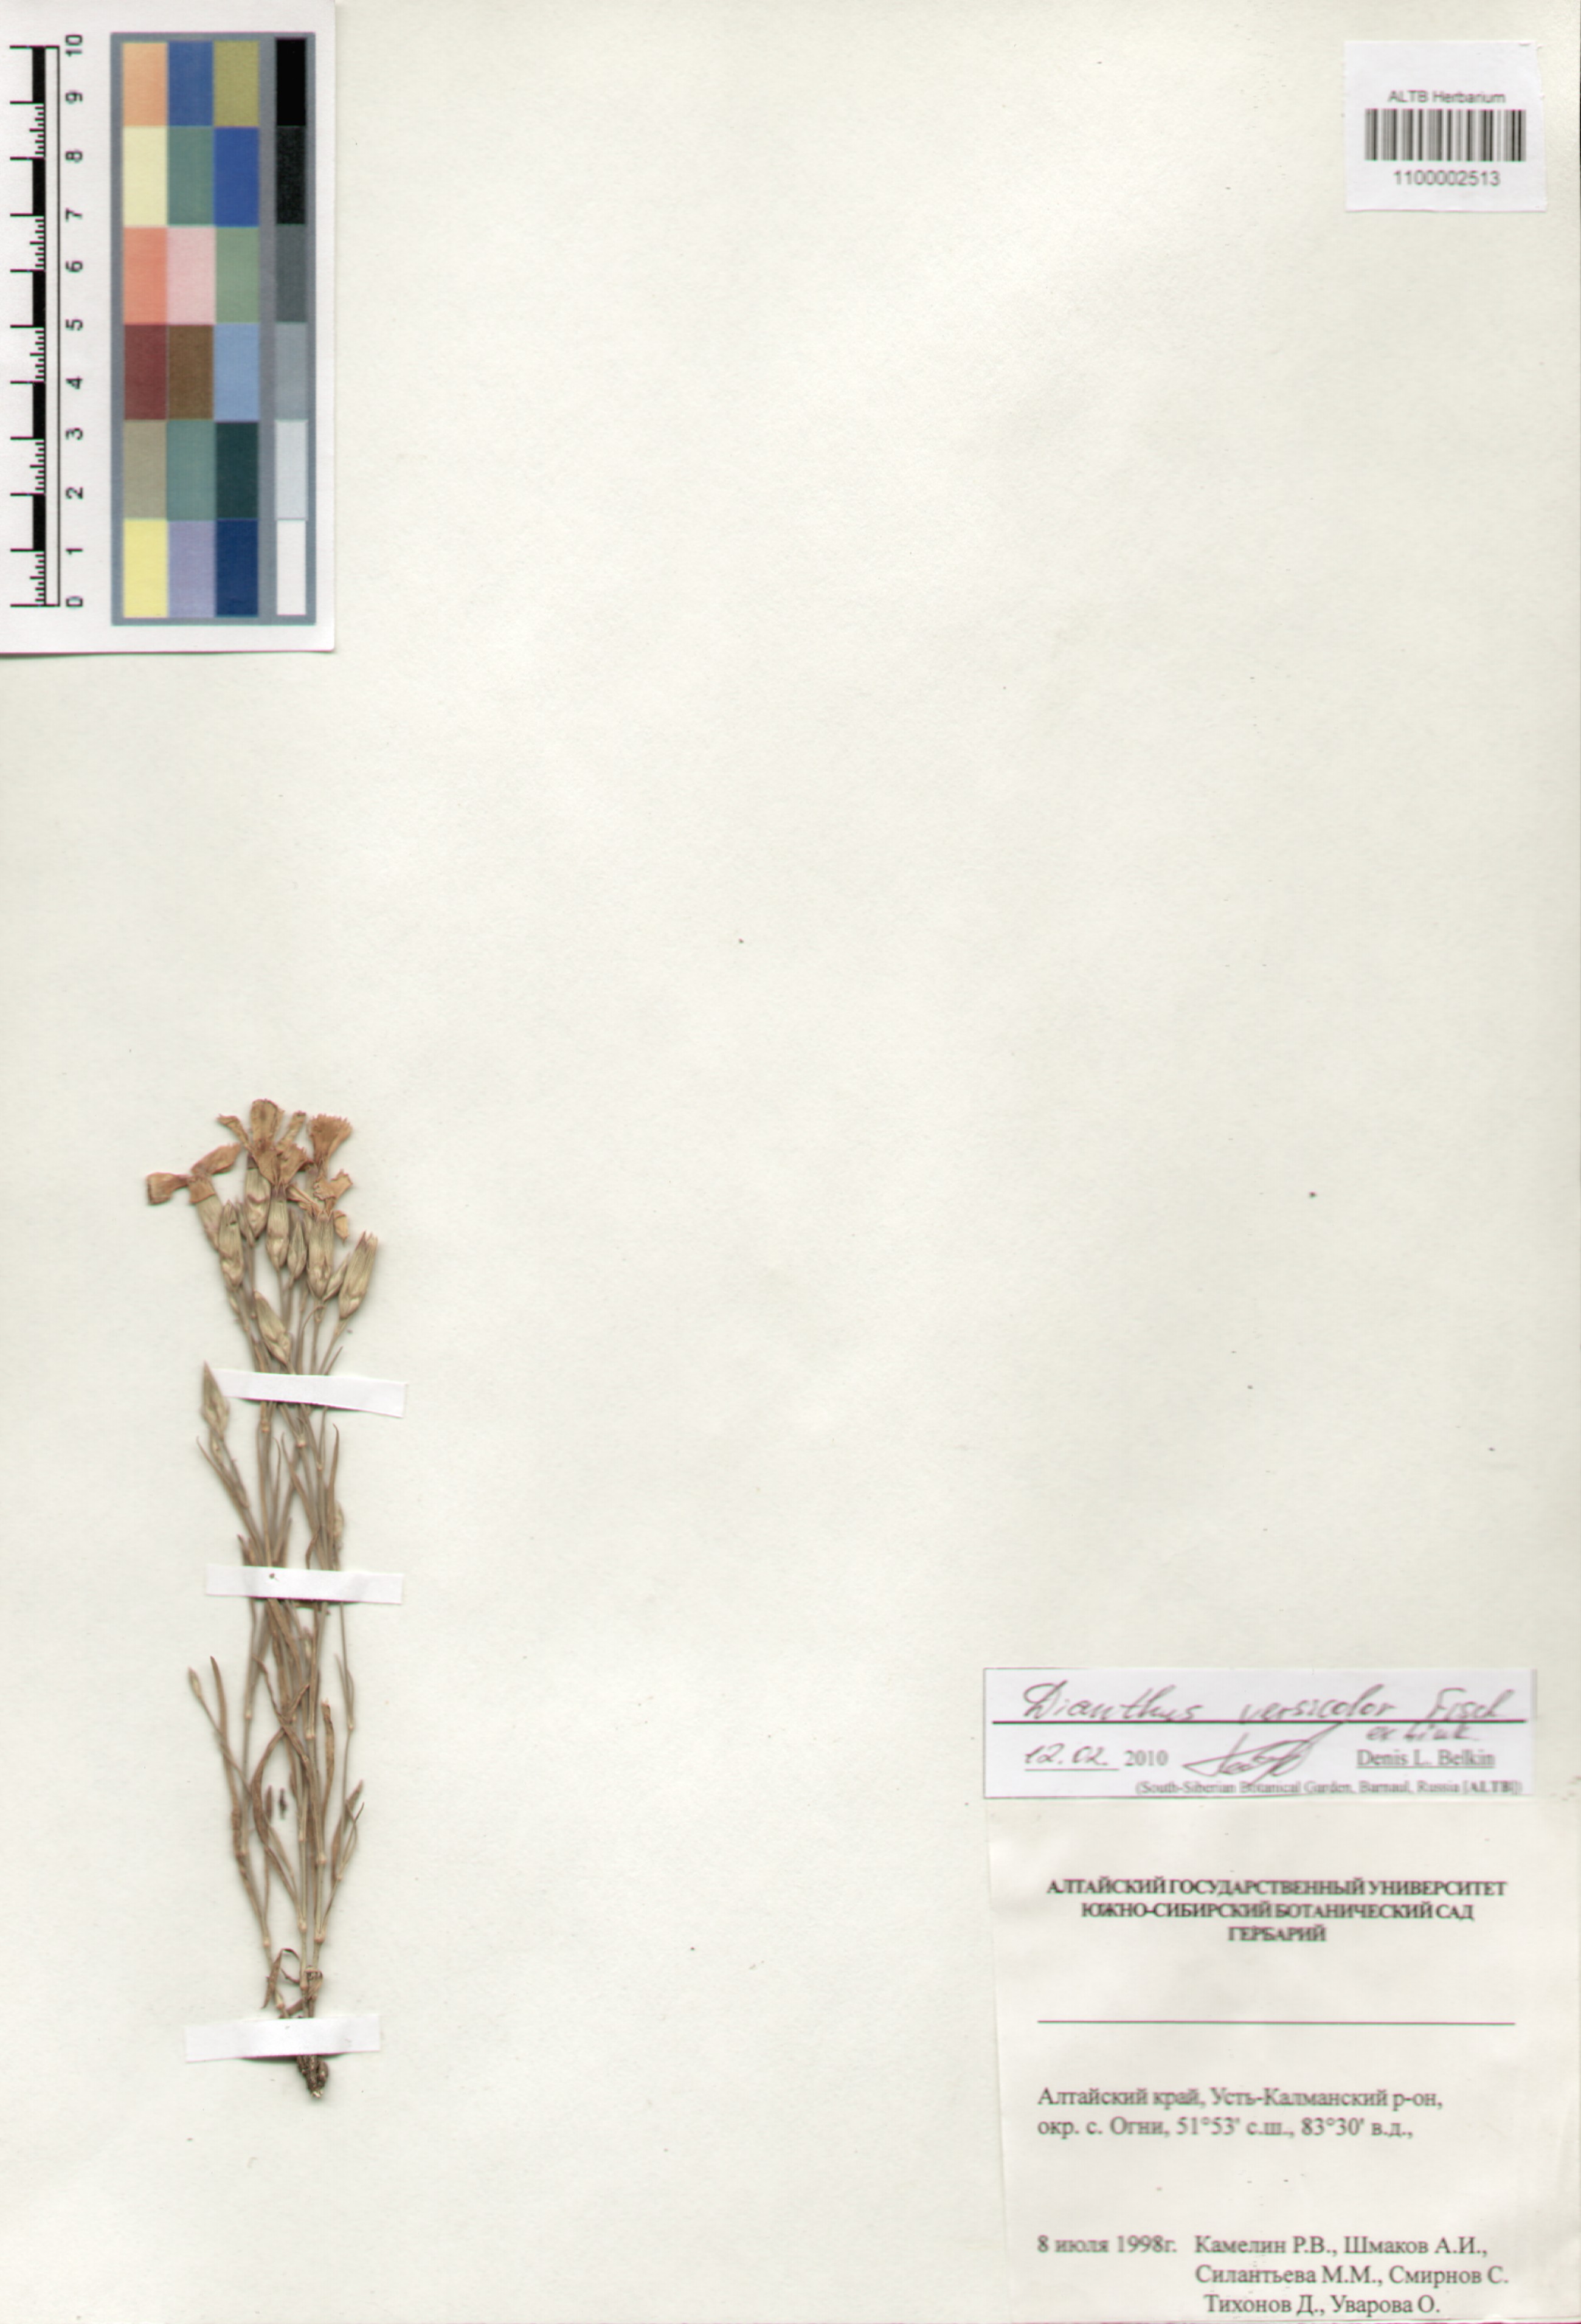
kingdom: Plantae
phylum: Tracheophyta
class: Magnoliopsida
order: Caryophyllales
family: Caryophyllaceae
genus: Dianthus
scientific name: Dianthus chinensis
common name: Rainbow pink
